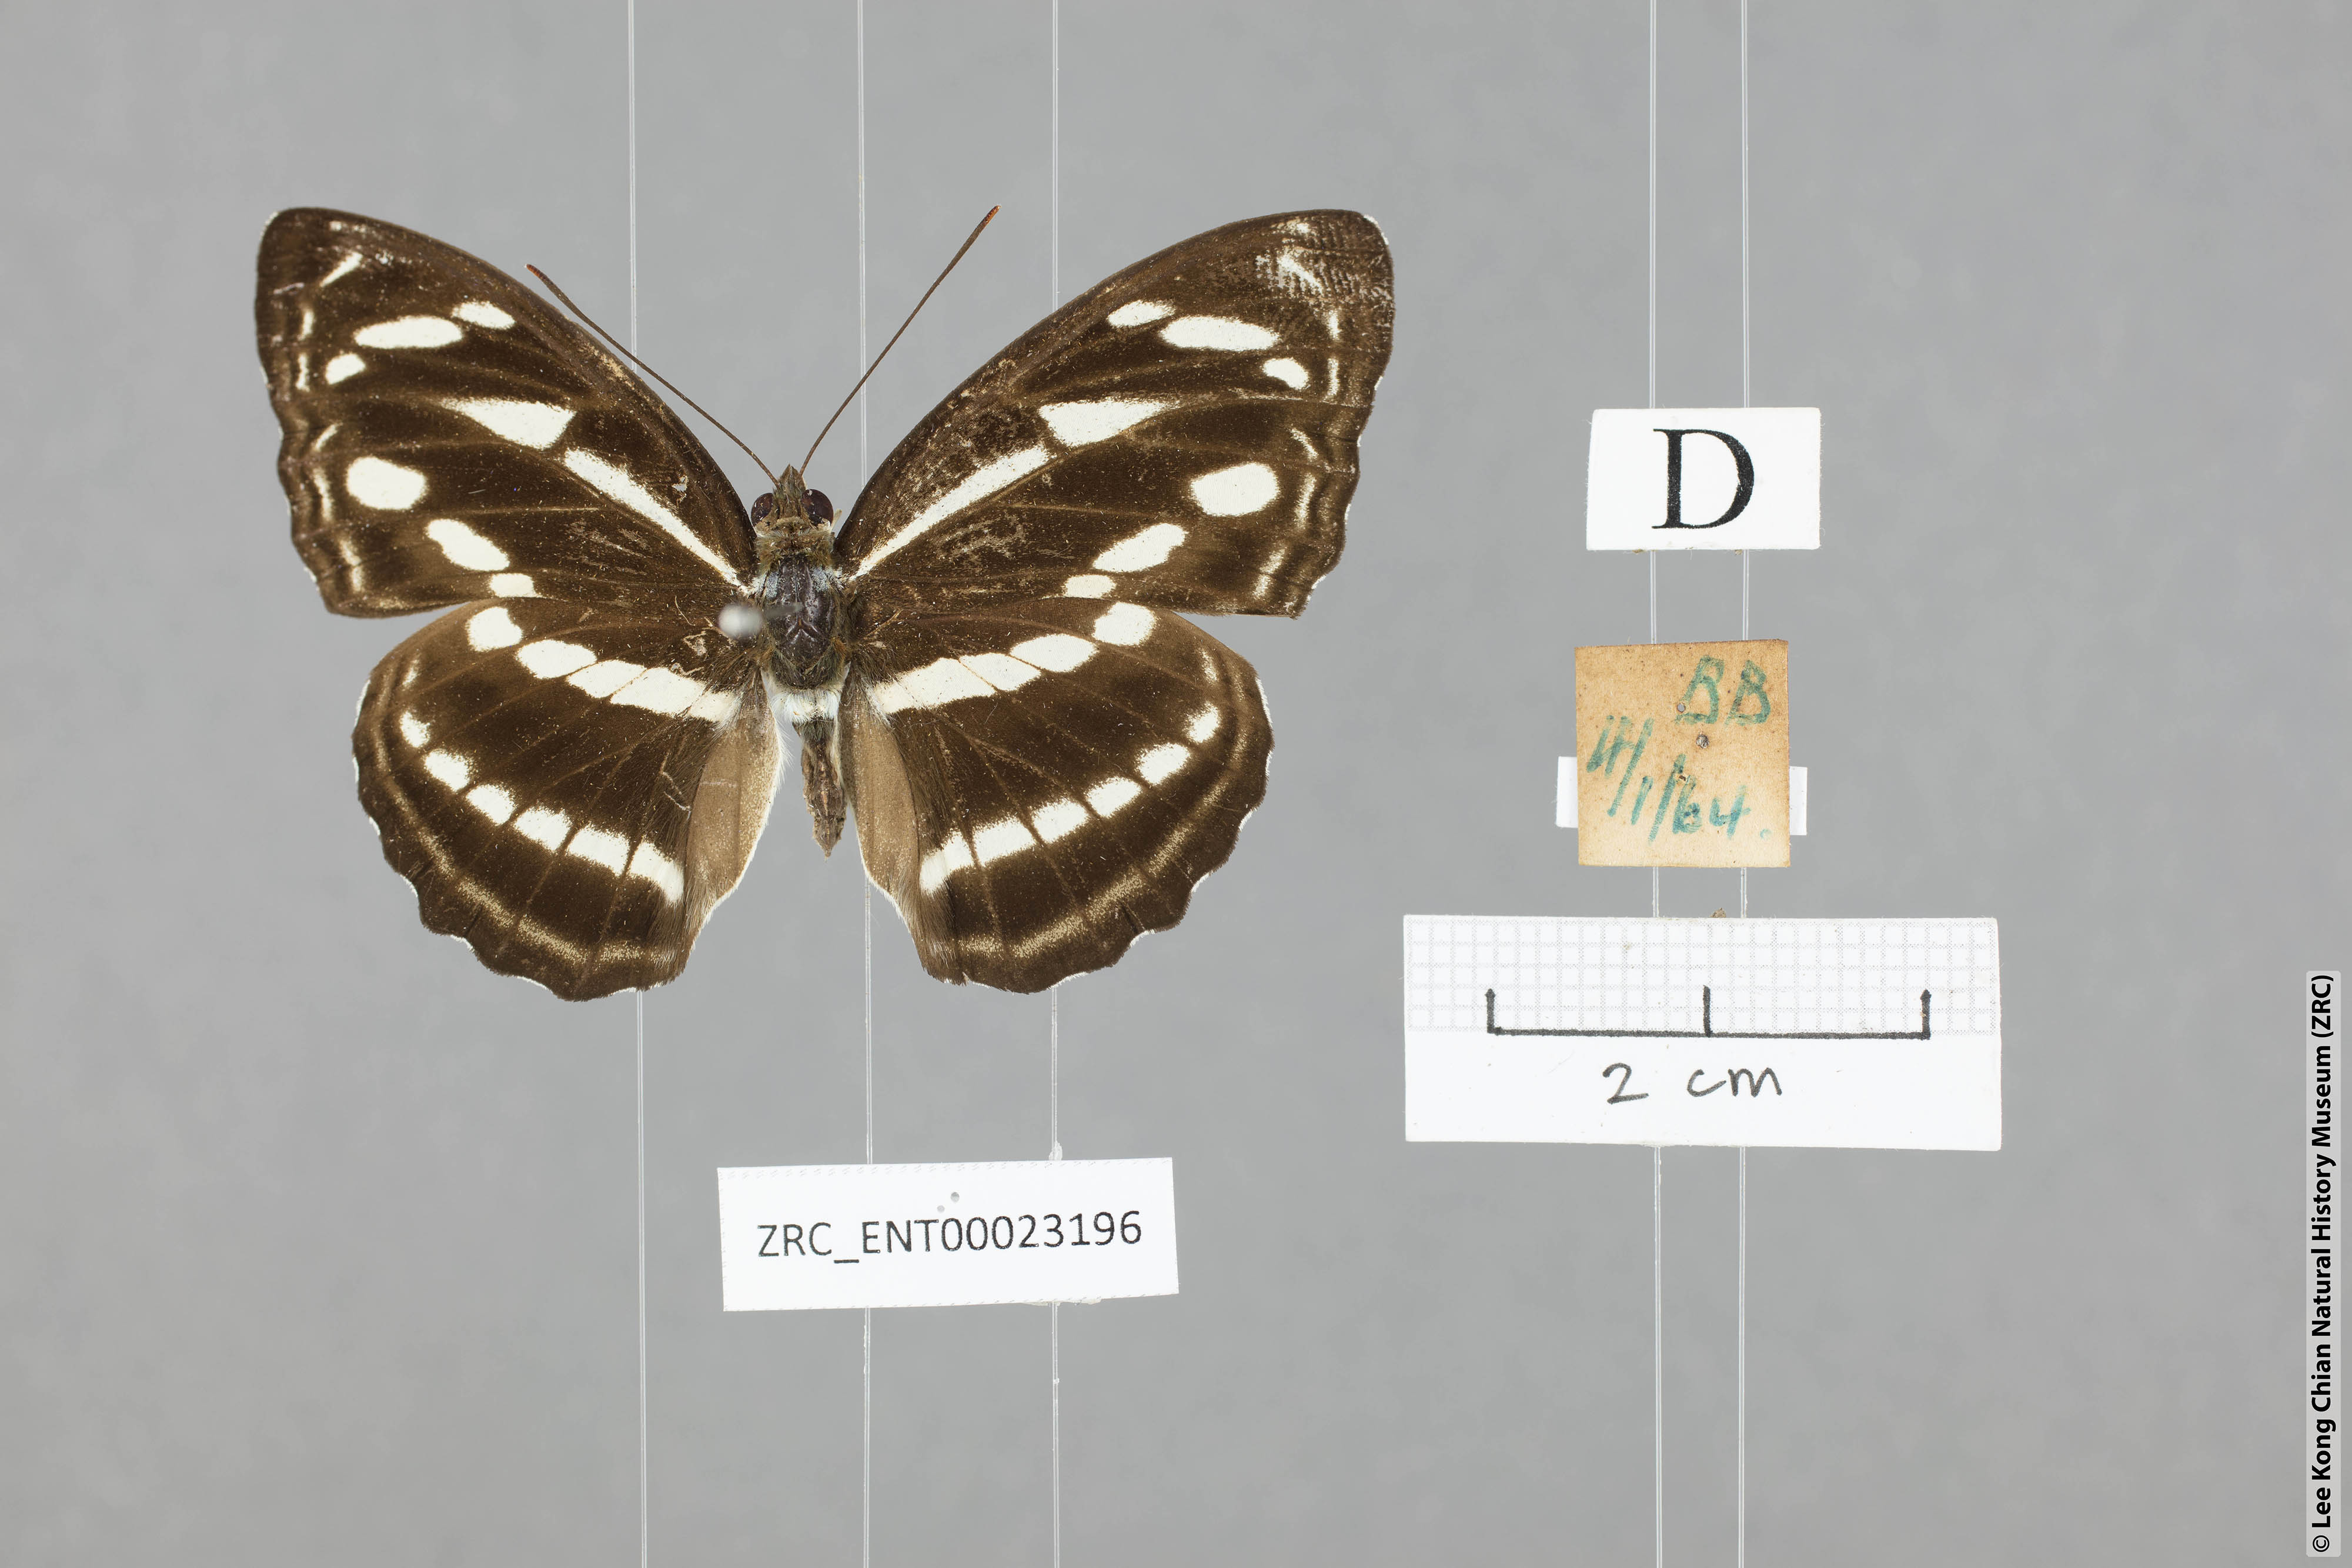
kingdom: Animalia
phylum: Arthropoda
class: Insecta
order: Lepidoptera
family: Nymphalidae
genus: Parathyma
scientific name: Parathyma kanwa
